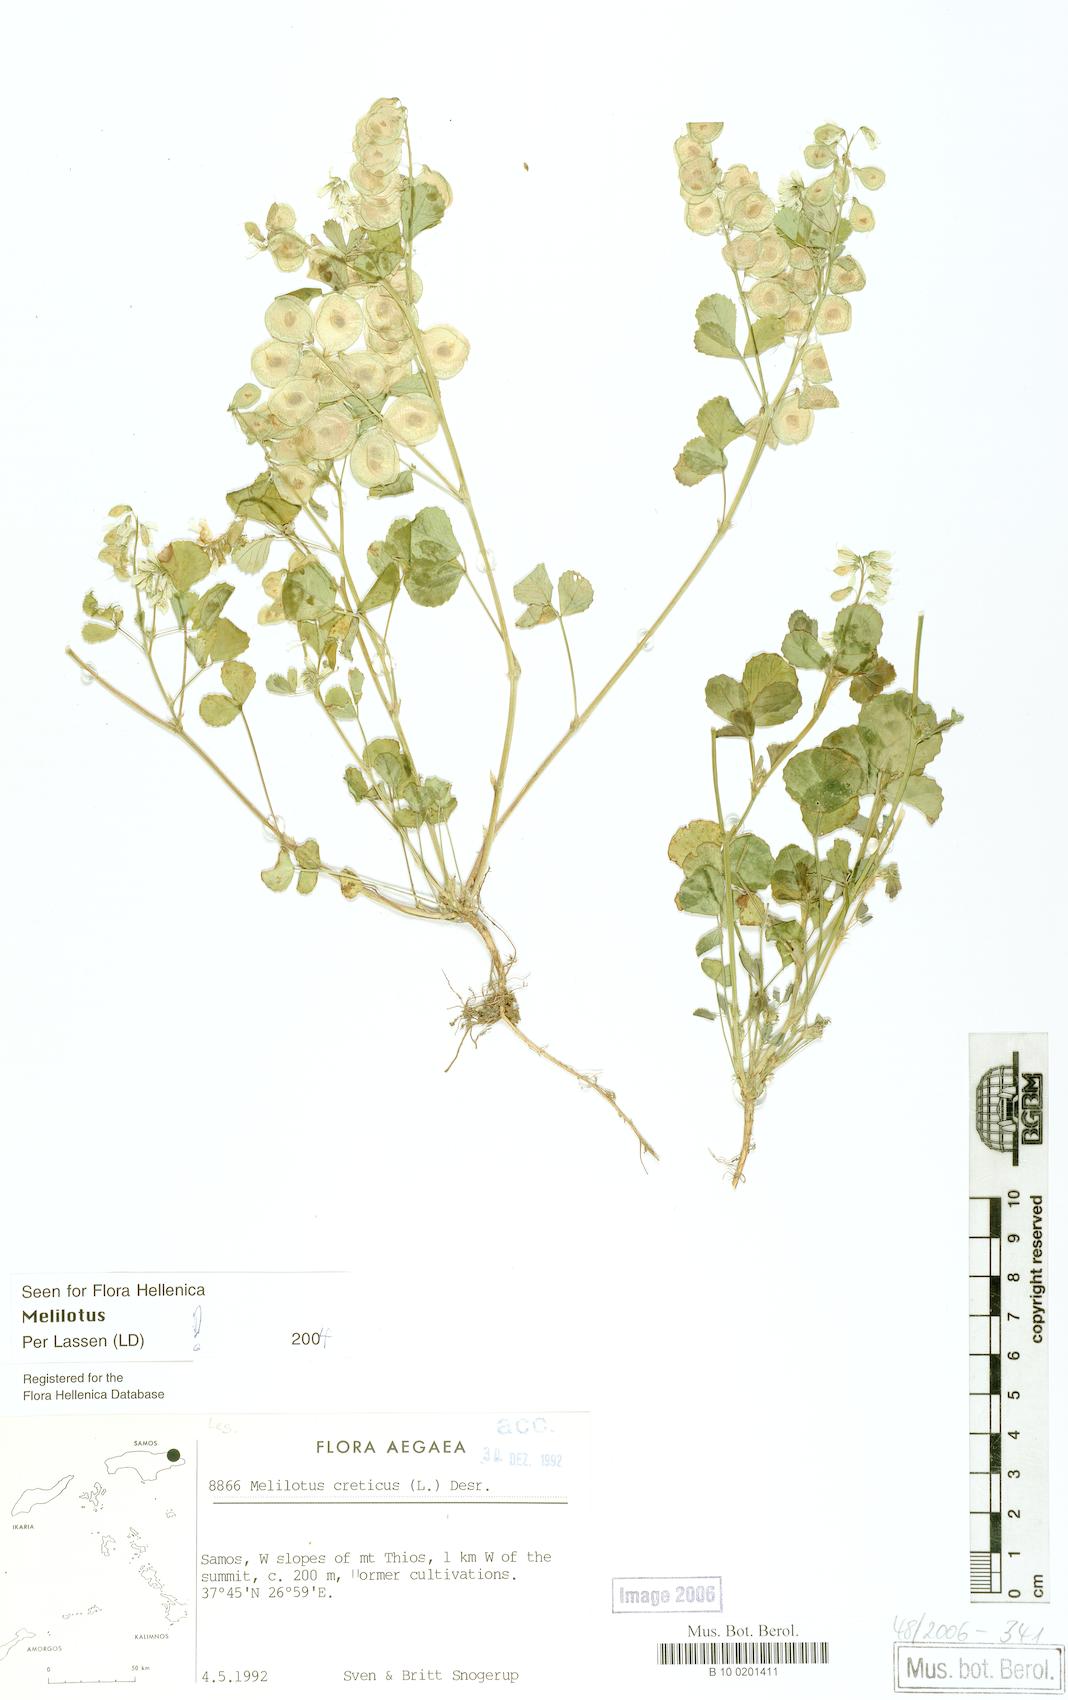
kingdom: Plantae
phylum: Tracheophyta
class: Magnoliopsida
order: Fabales
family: Fabaceae
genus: Trigonella
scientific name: Trigonella cretica
